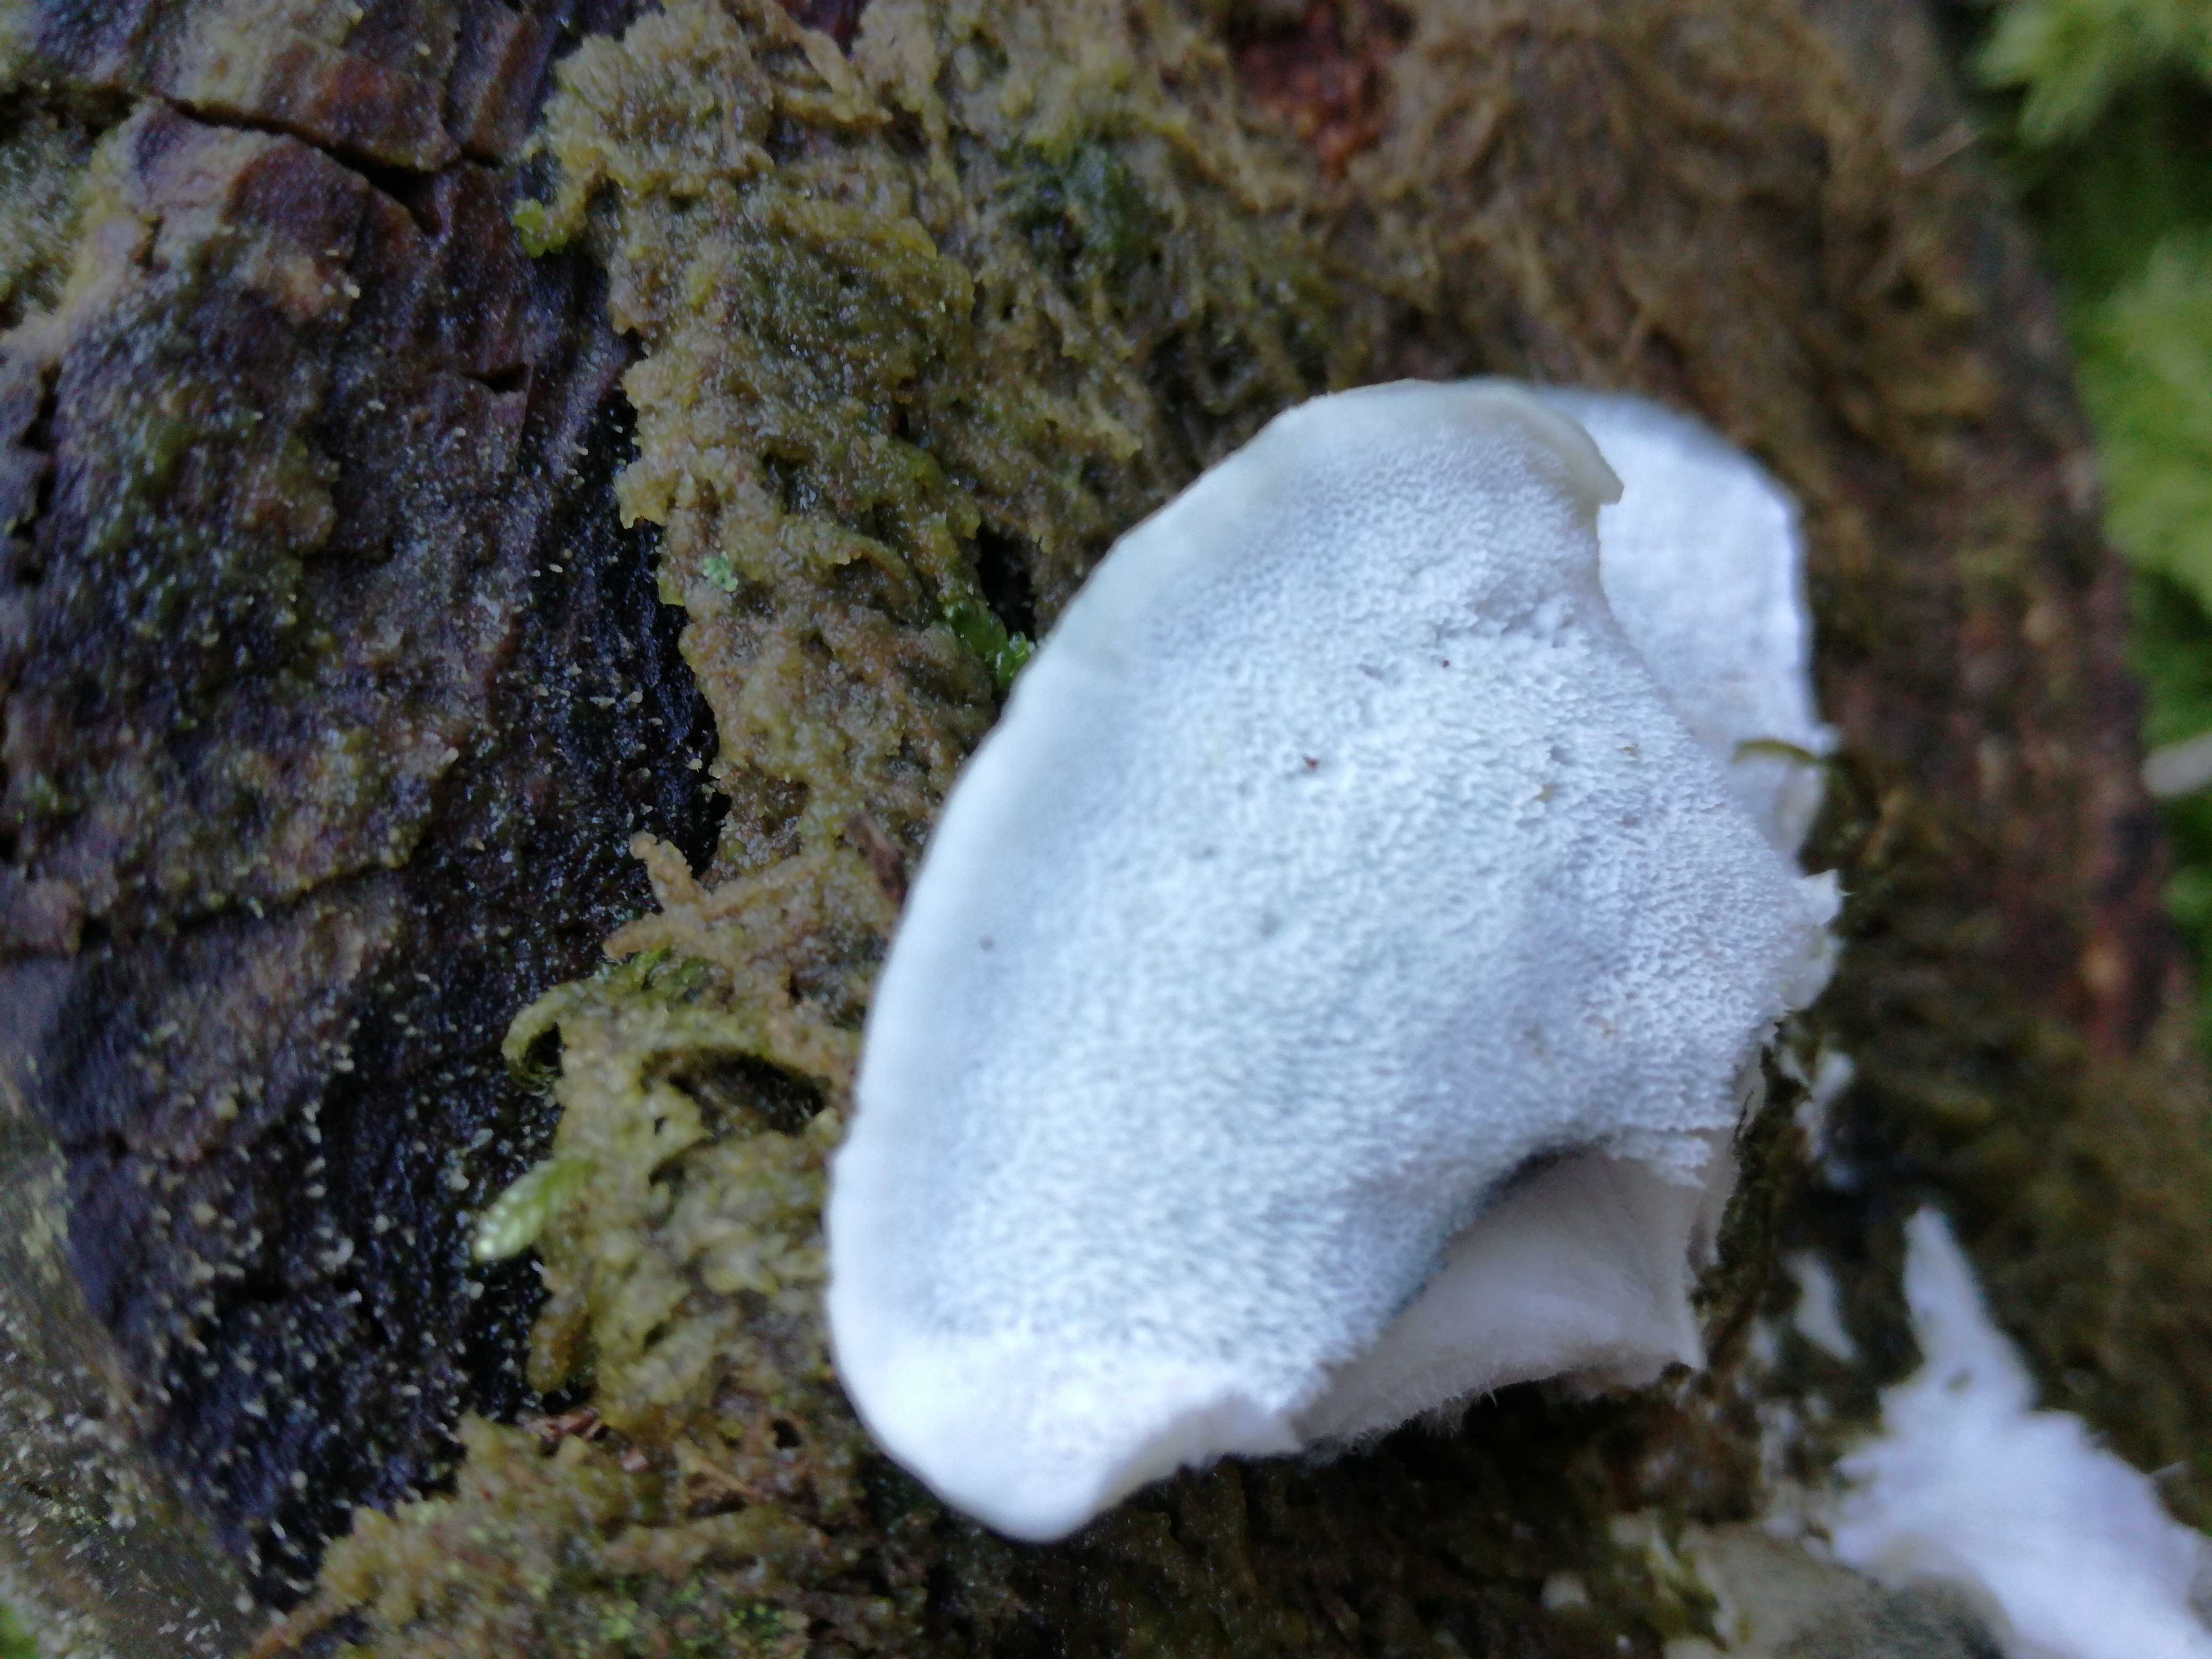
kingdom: Fungi
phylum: Basidiomycota
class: Agaricomycetes
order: Polyporales
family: Polyporaceae
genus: Cyanosporus
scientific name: Cyanosporus caesius
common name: blålig kødporesvamp
